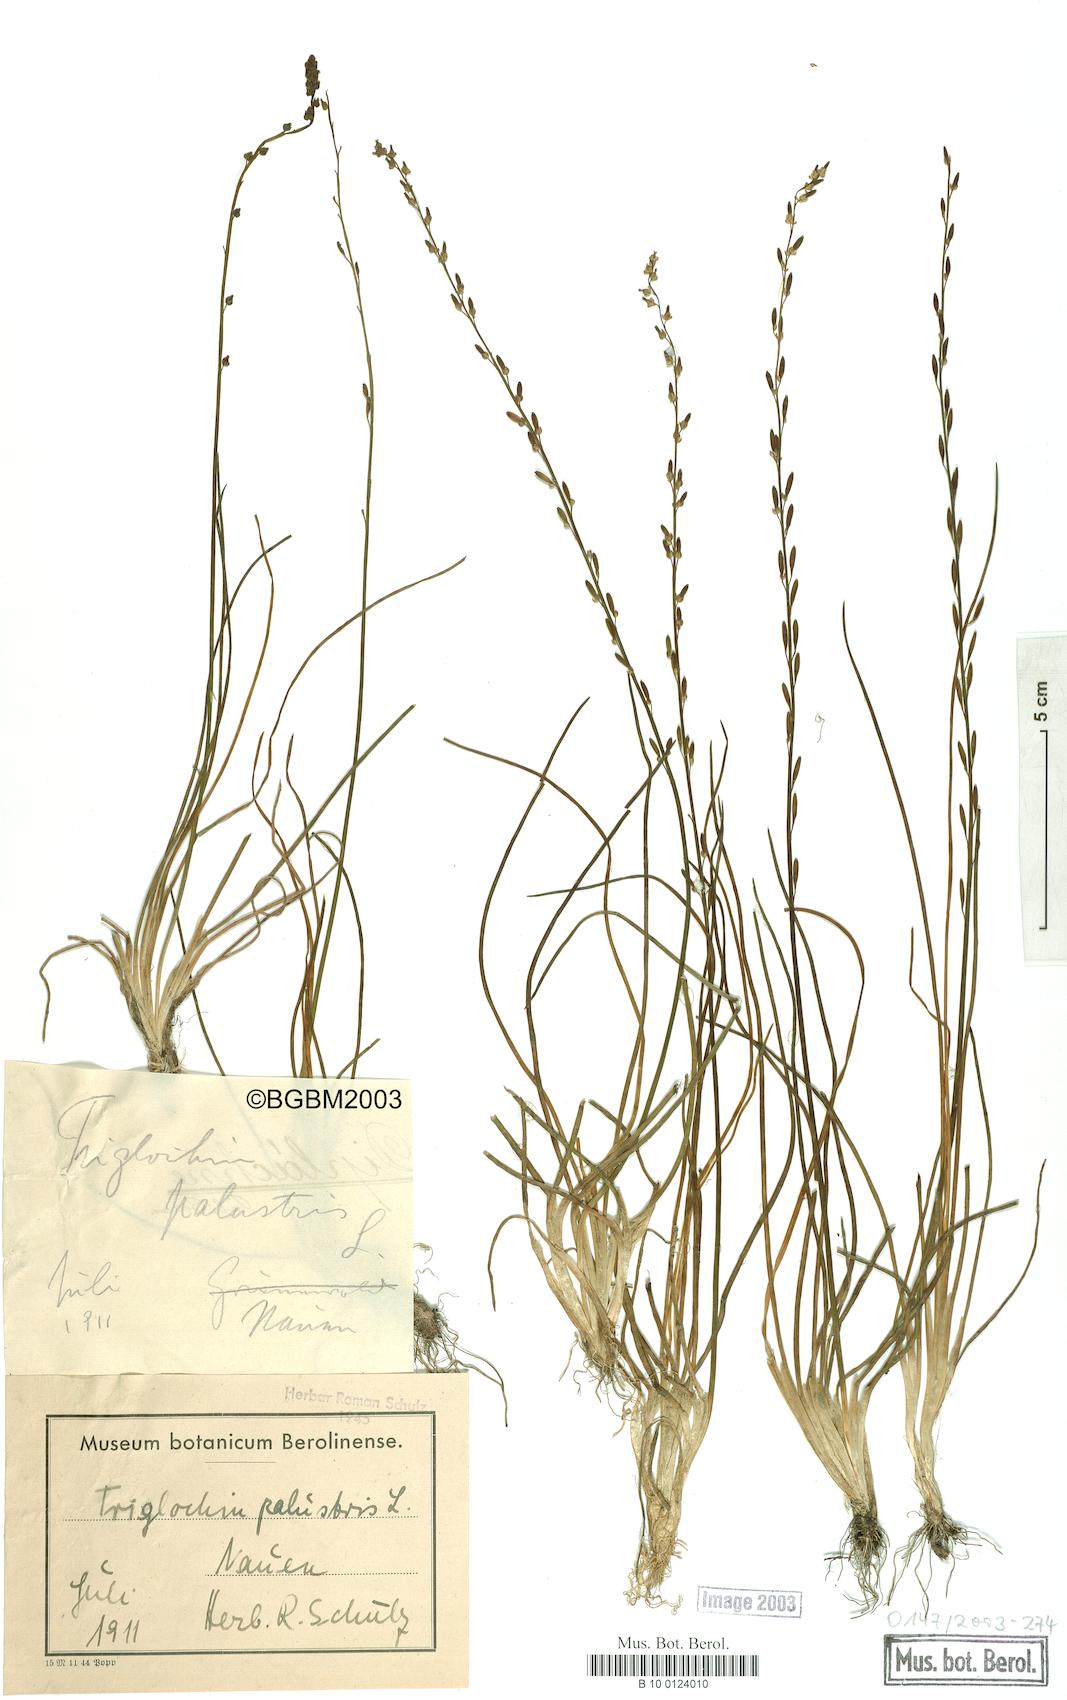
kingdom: Plantae
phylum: Tracheophyta
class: Liliopsida
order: Alismatales
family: Juncaginaceae
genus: Triglochin
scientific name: Triglochin palustris
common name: Marsh arrowgrass
